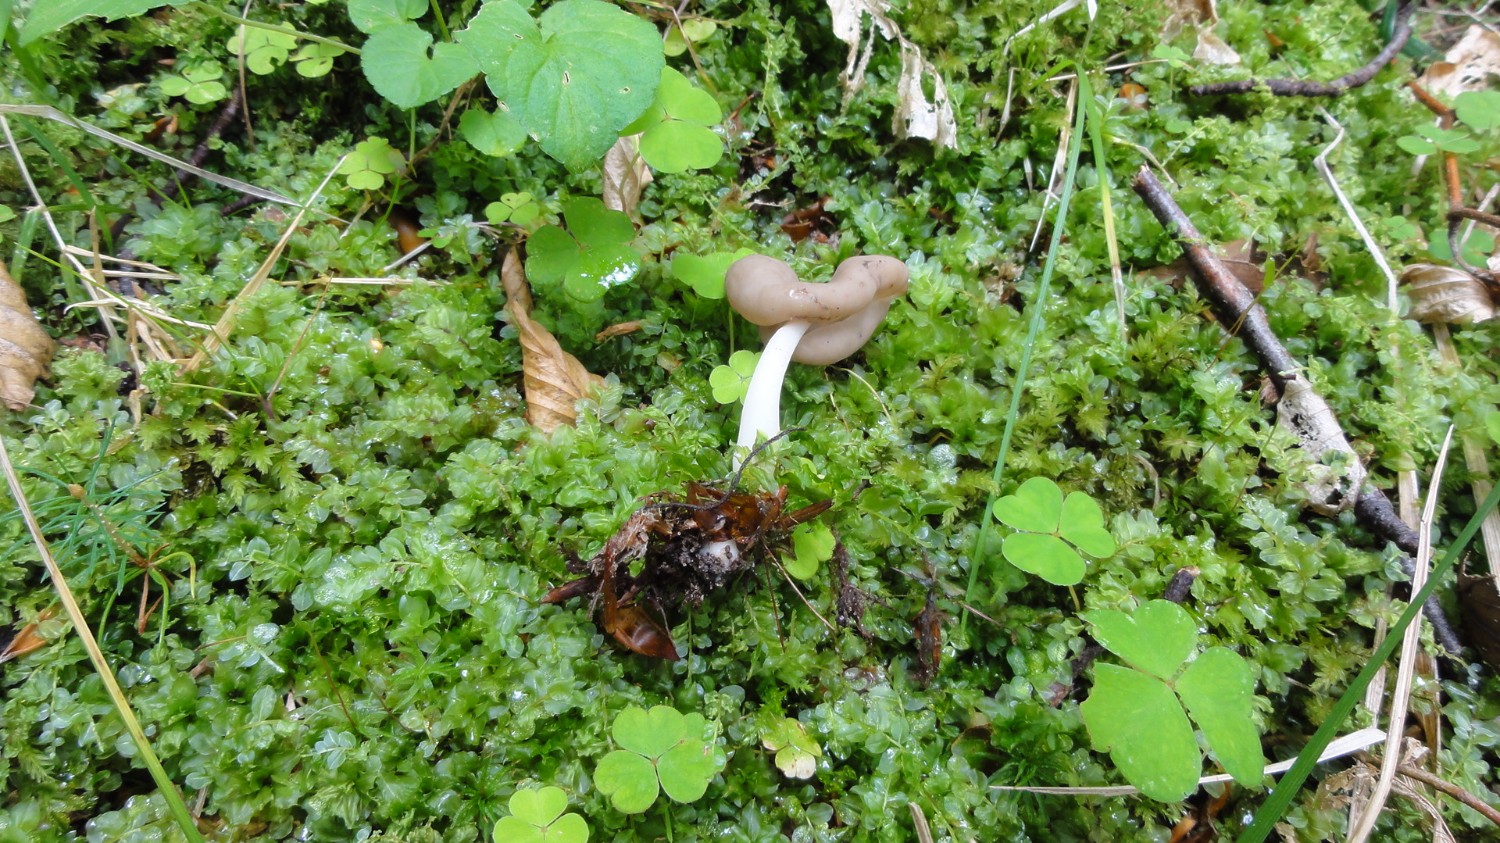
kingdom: Fungi
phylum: Ascomycota
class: Pezizomycetes
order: Pezizales
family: Helvellaceae
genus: Helvella
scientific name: Helvella elastica
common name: elastik-foldhat
